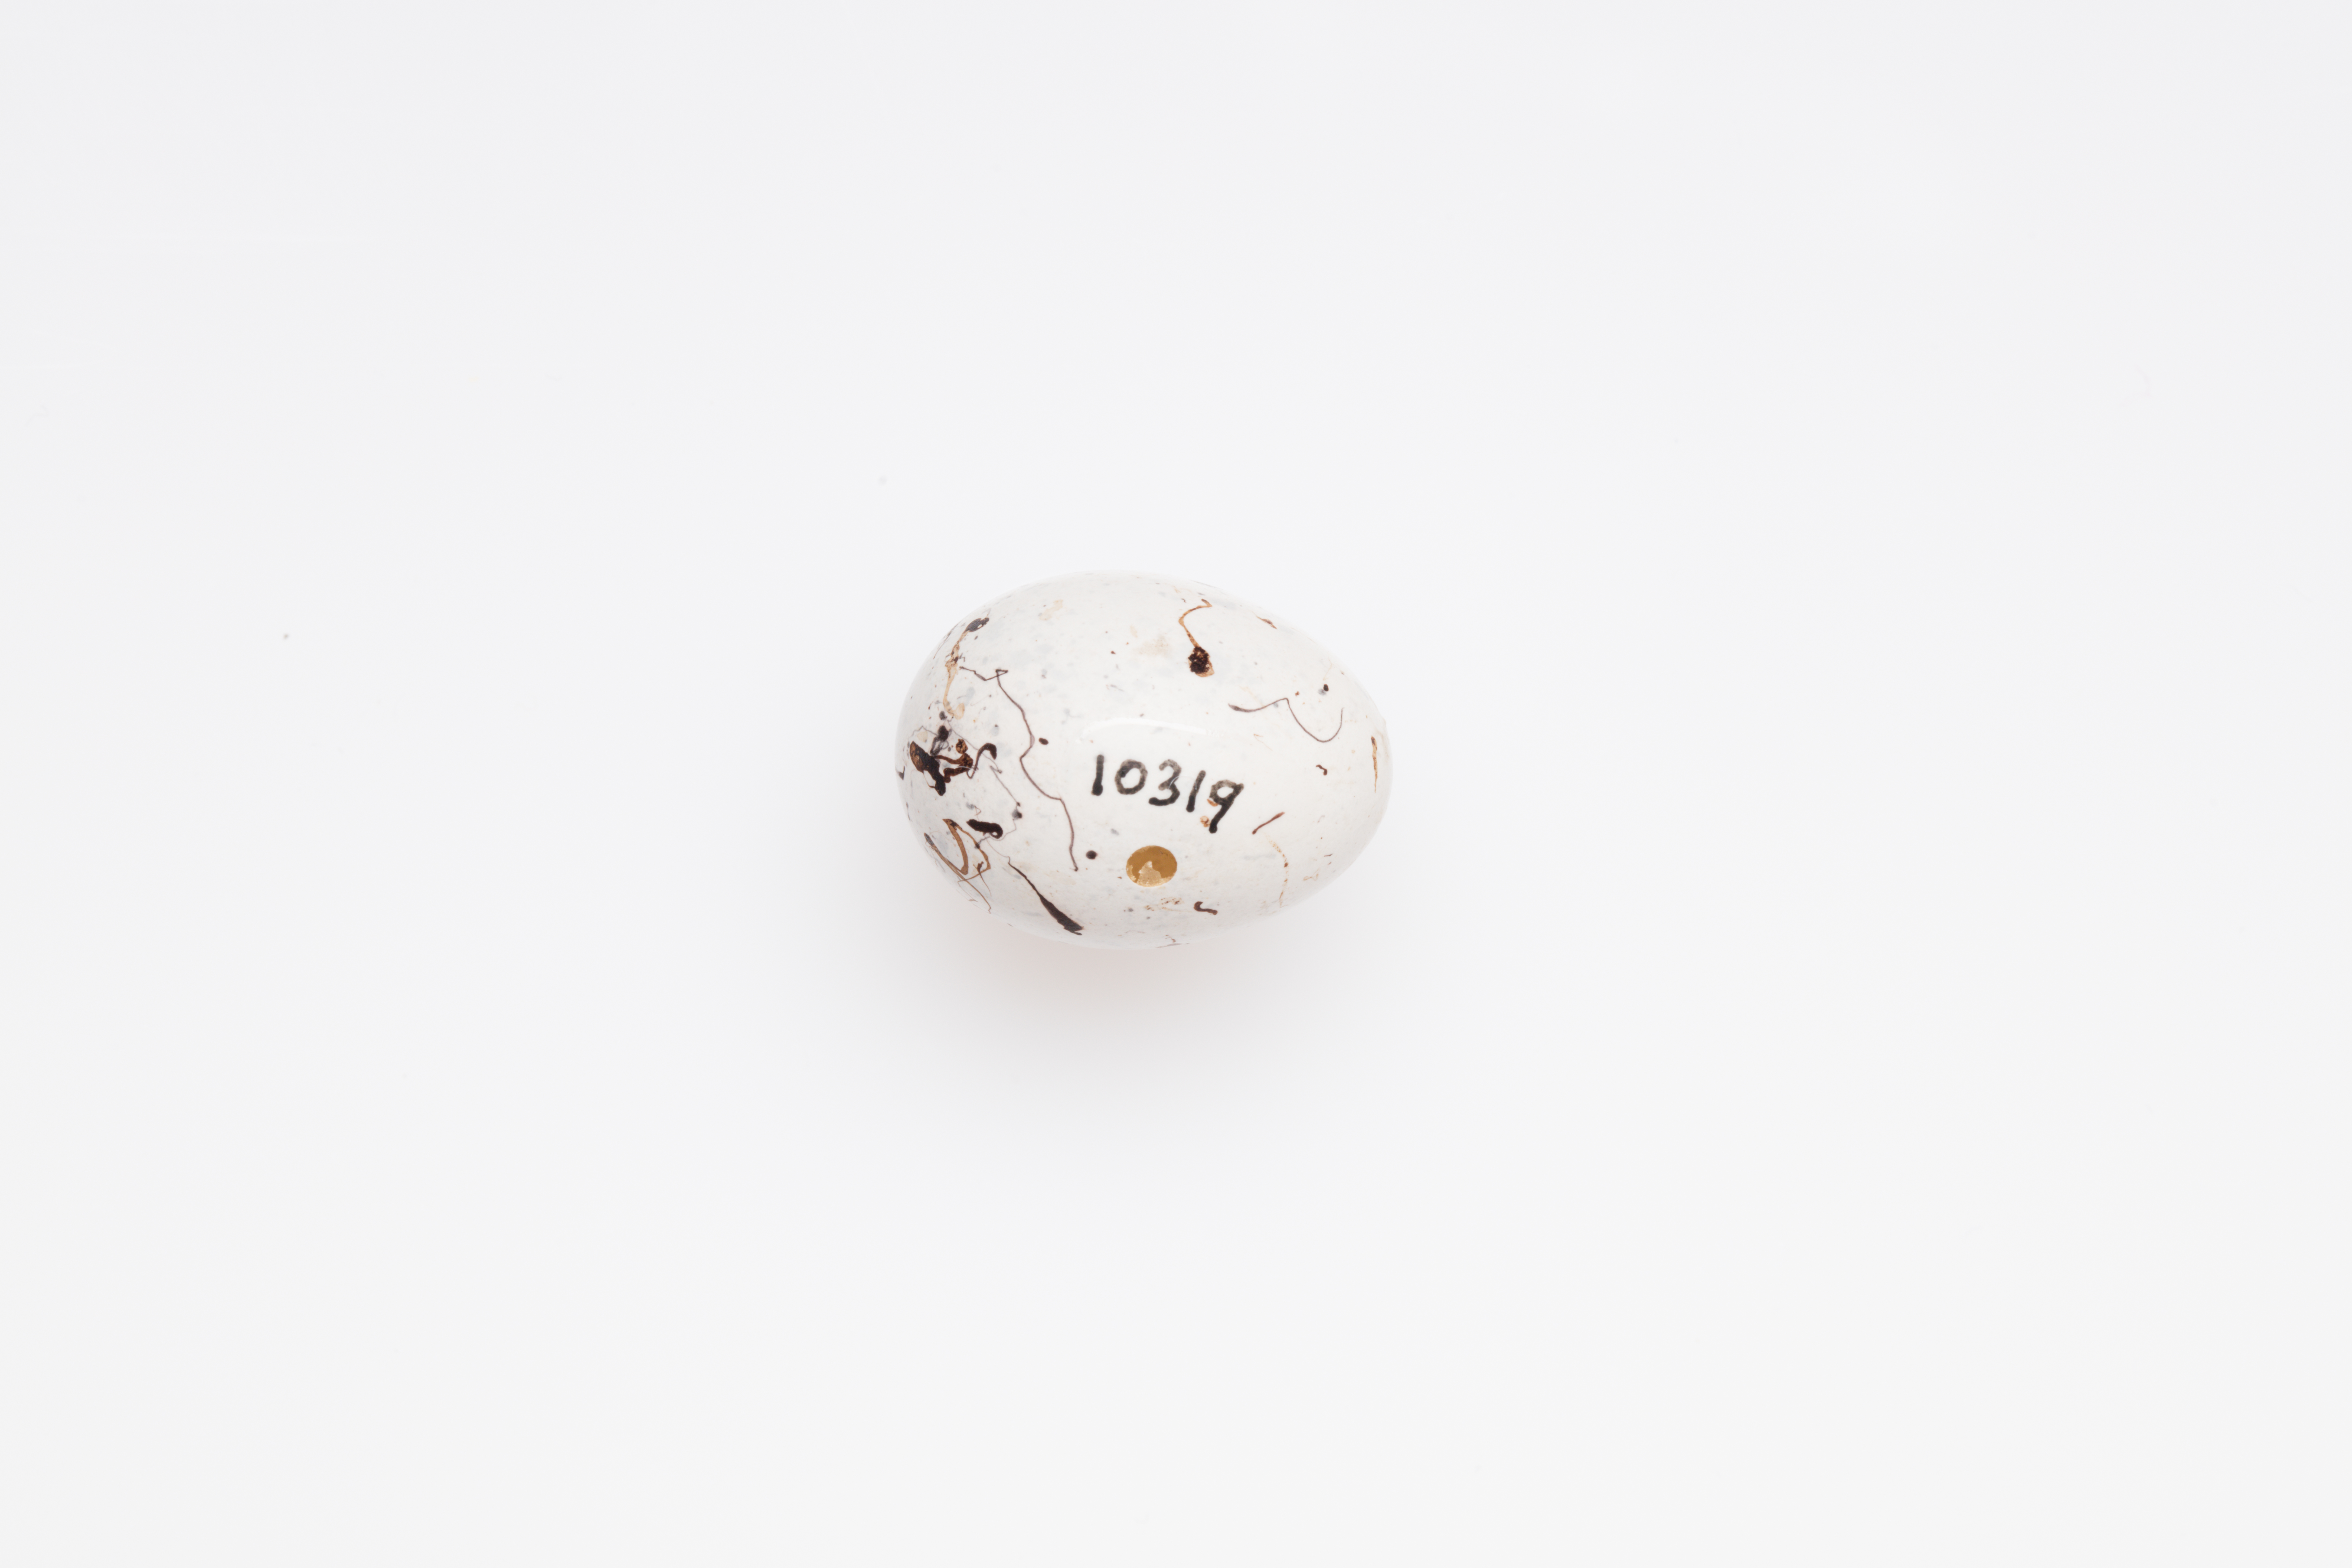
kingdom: Animalia
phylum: Chordata
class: Aves
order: Passeriformes
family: Emberizidae
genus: Emberiza
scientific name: Emberiza cirlus
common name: Cirl bunting
